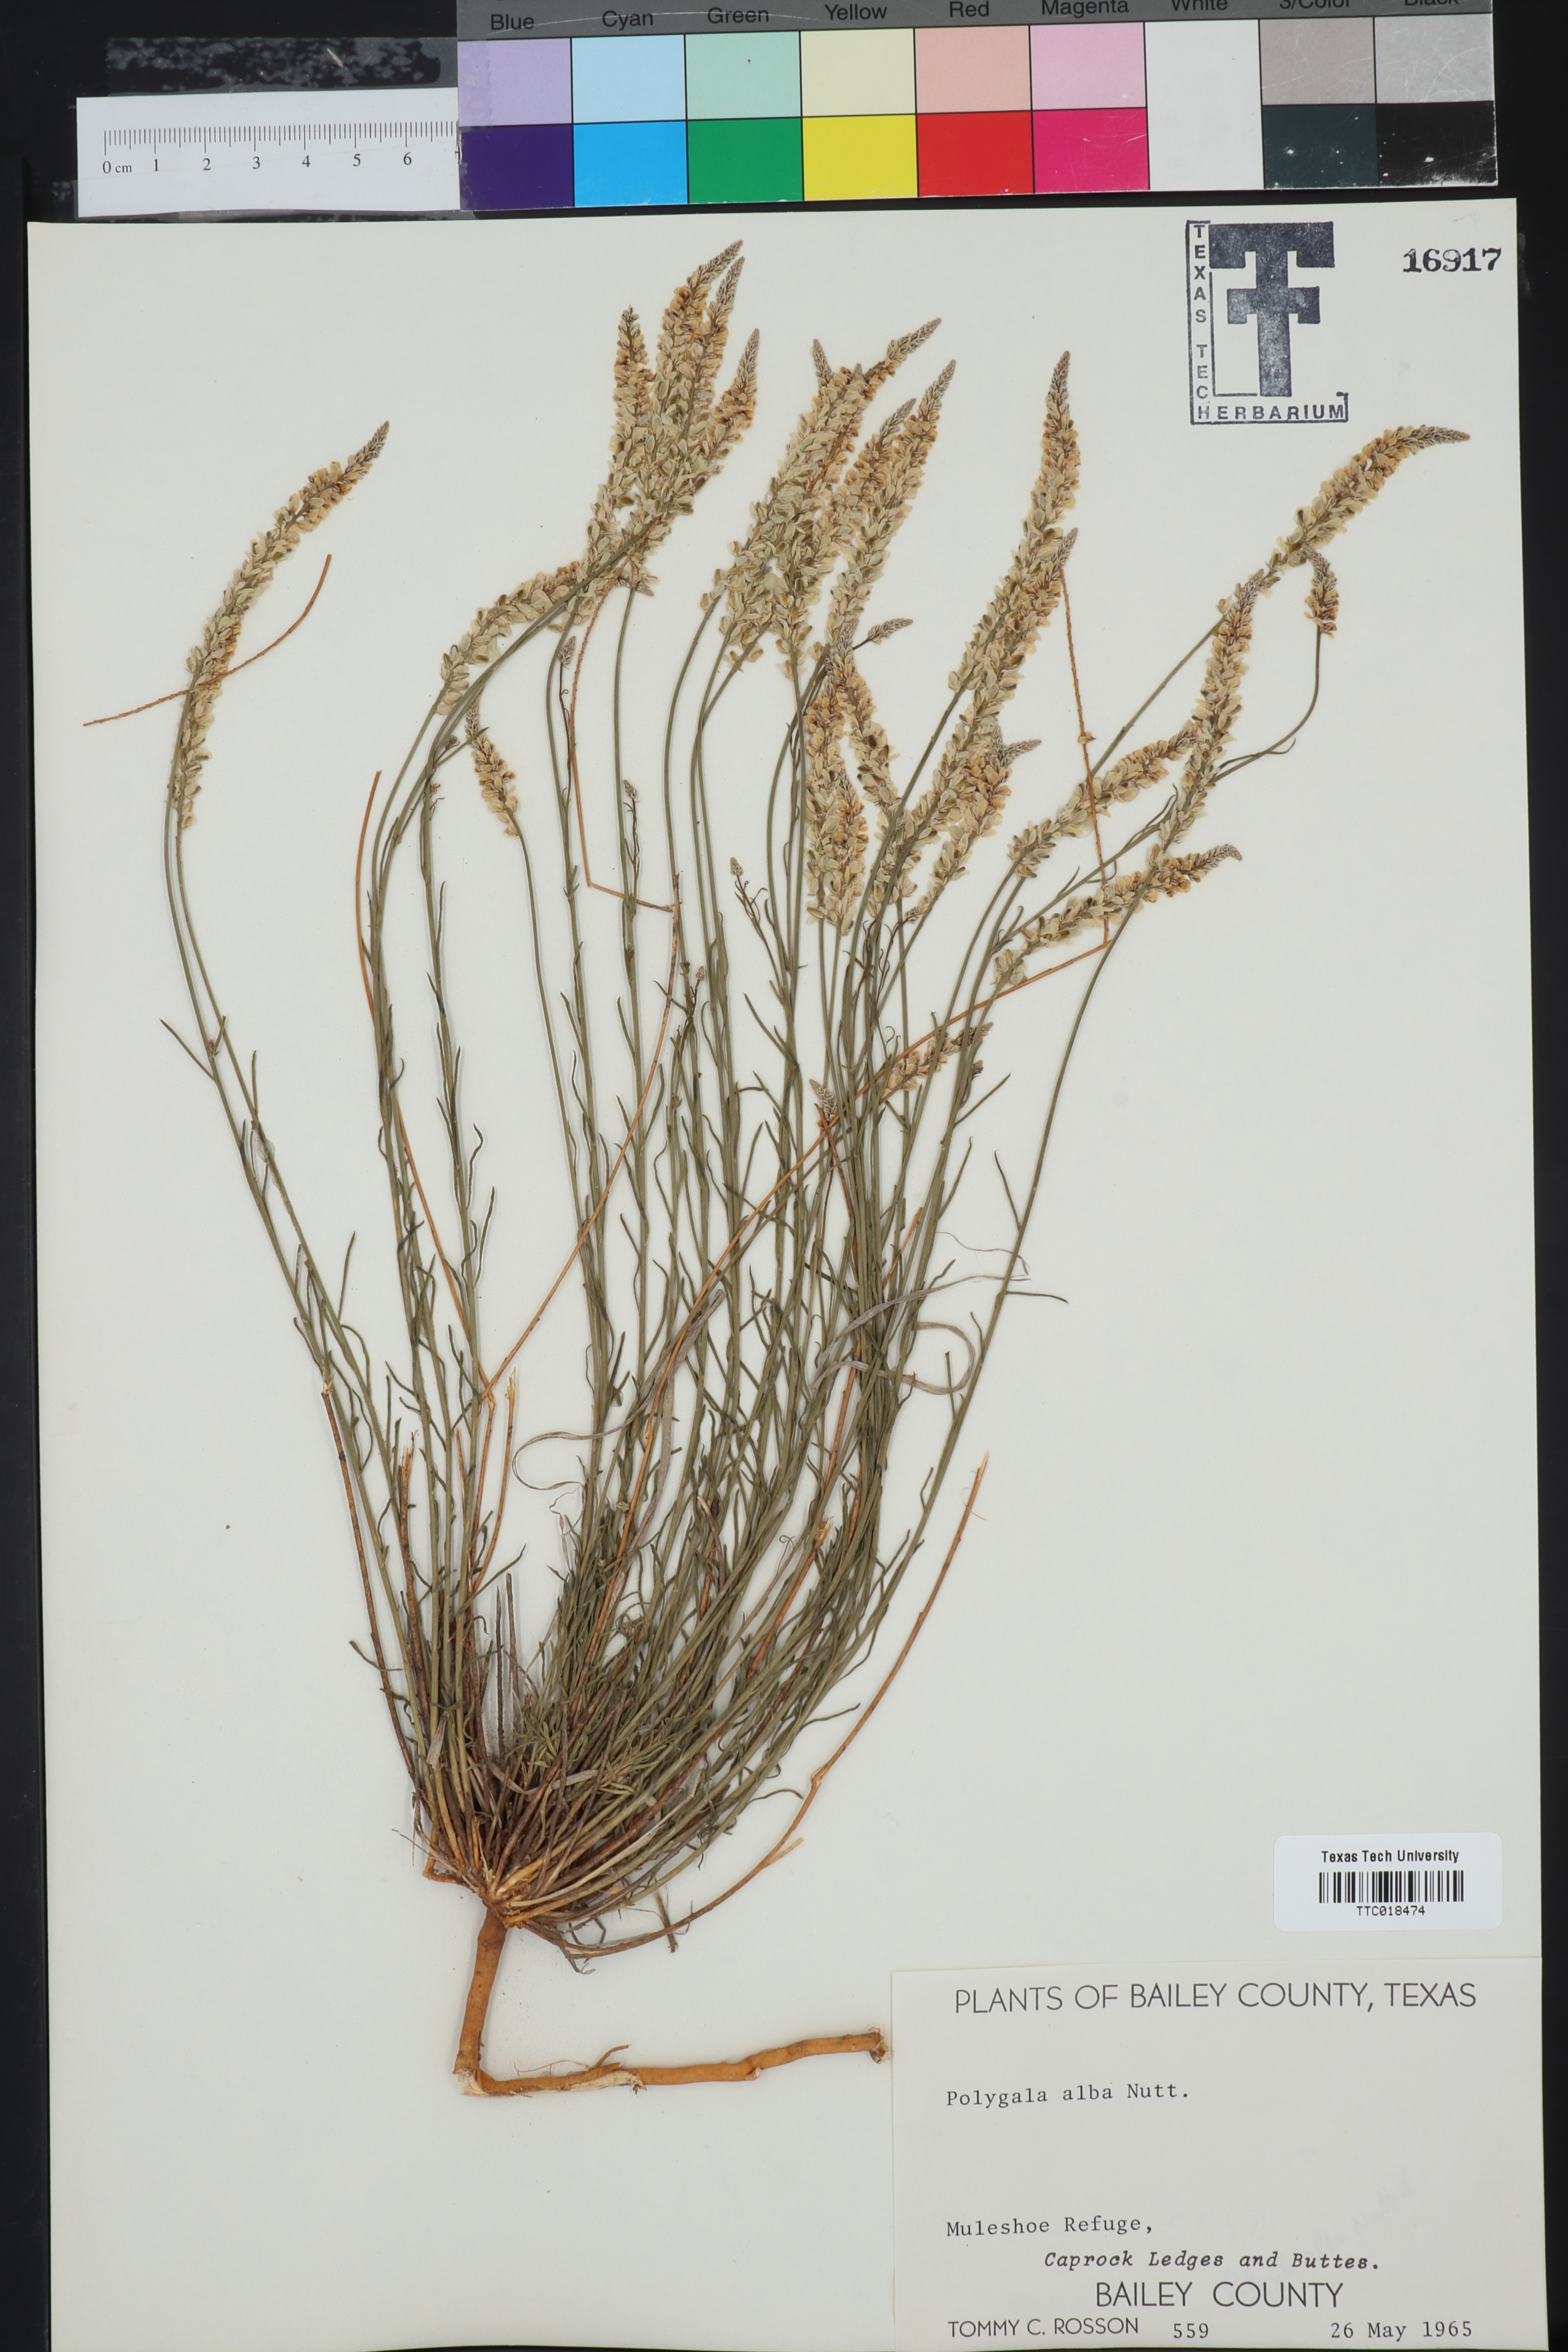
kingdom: Plantae
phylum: Tracheophyta
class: Magnoliopsida
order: Fabales
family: Polygalaceae
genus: Polygala
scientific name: Polygala alba
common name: White milkwort
